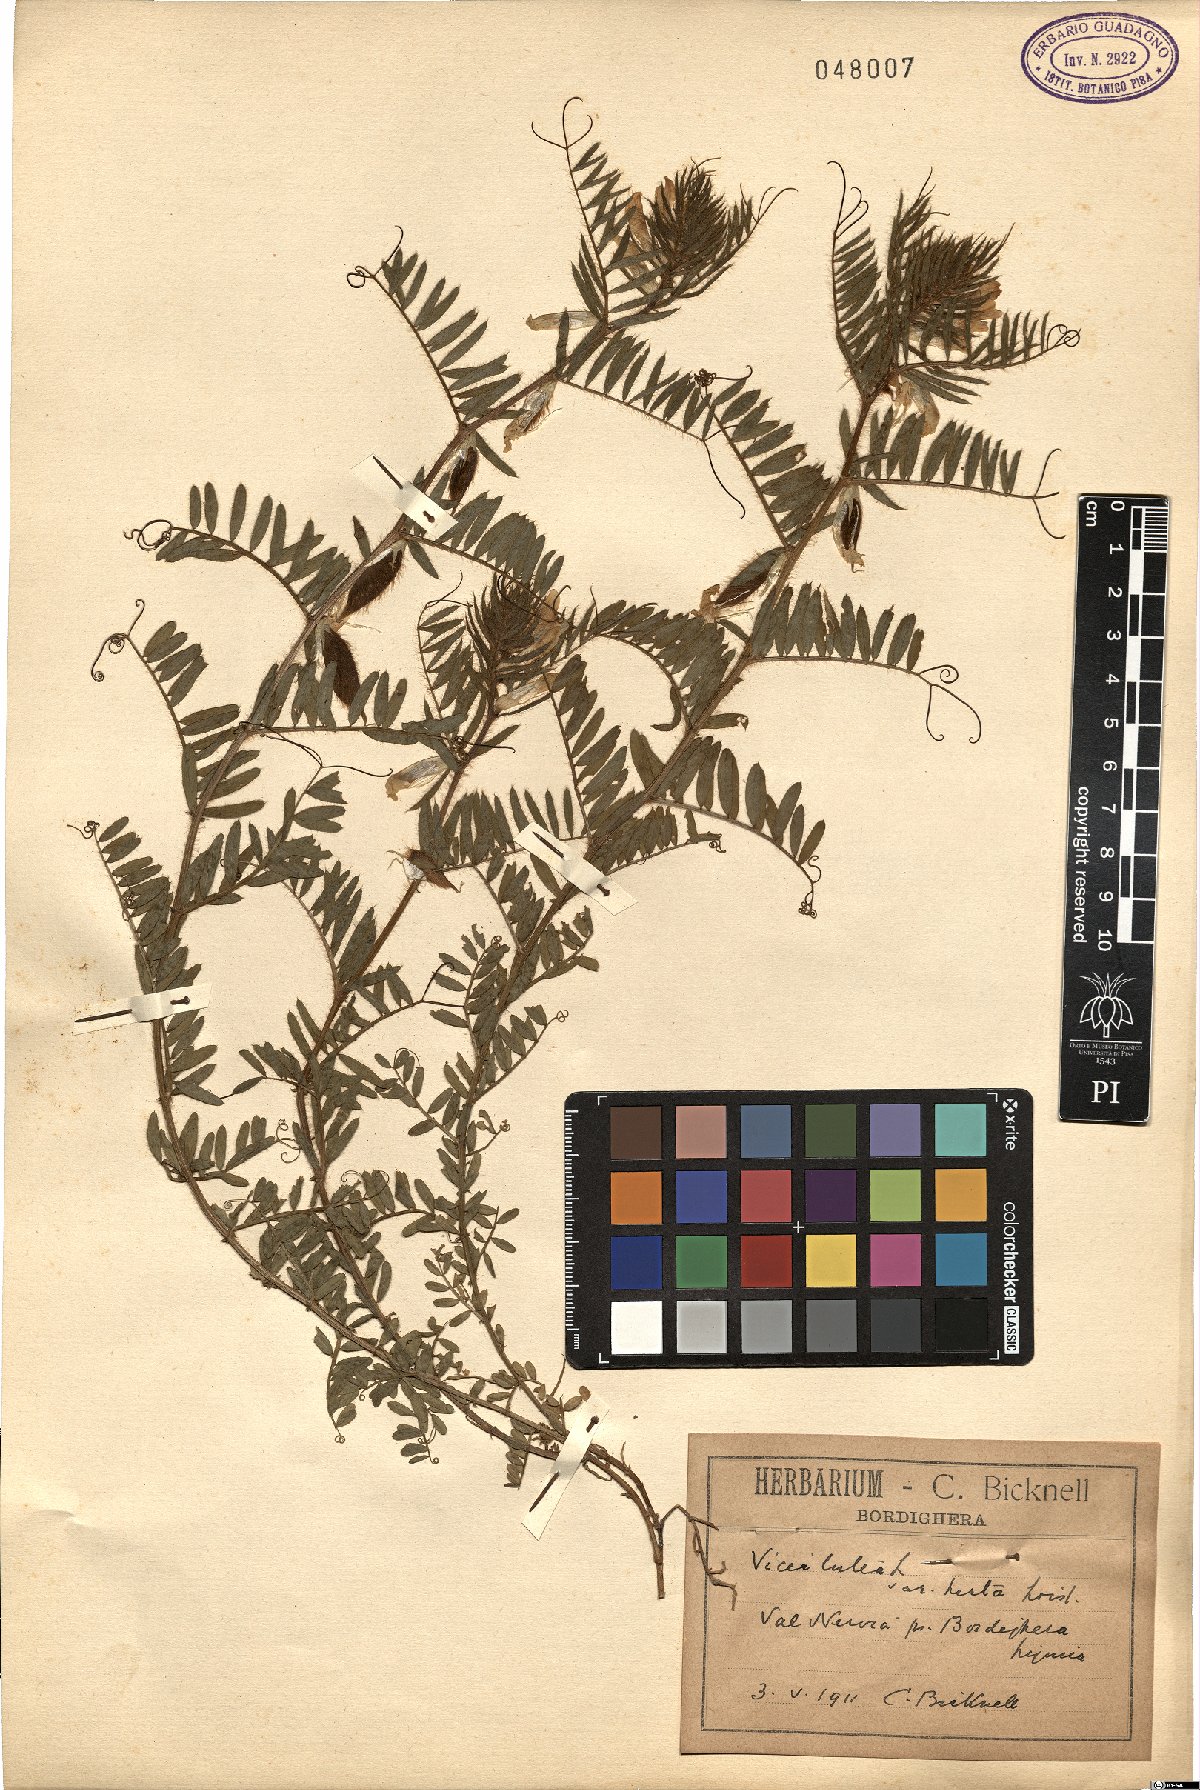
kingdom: Plantae
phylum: Tracheophyta
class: Magnoliopsida
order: Fabales
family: Fabaceae
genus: Vicia
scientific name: Vicia lutea
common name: Smooth yellow vetch
